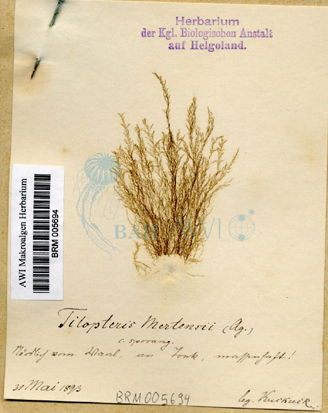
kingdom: Chromista
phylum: Ochrophyta
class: Phaeophyceae
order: Tilopteridales
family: Tilopteridaceae
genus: Tilopteris
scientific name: Tilopteris mertensii
